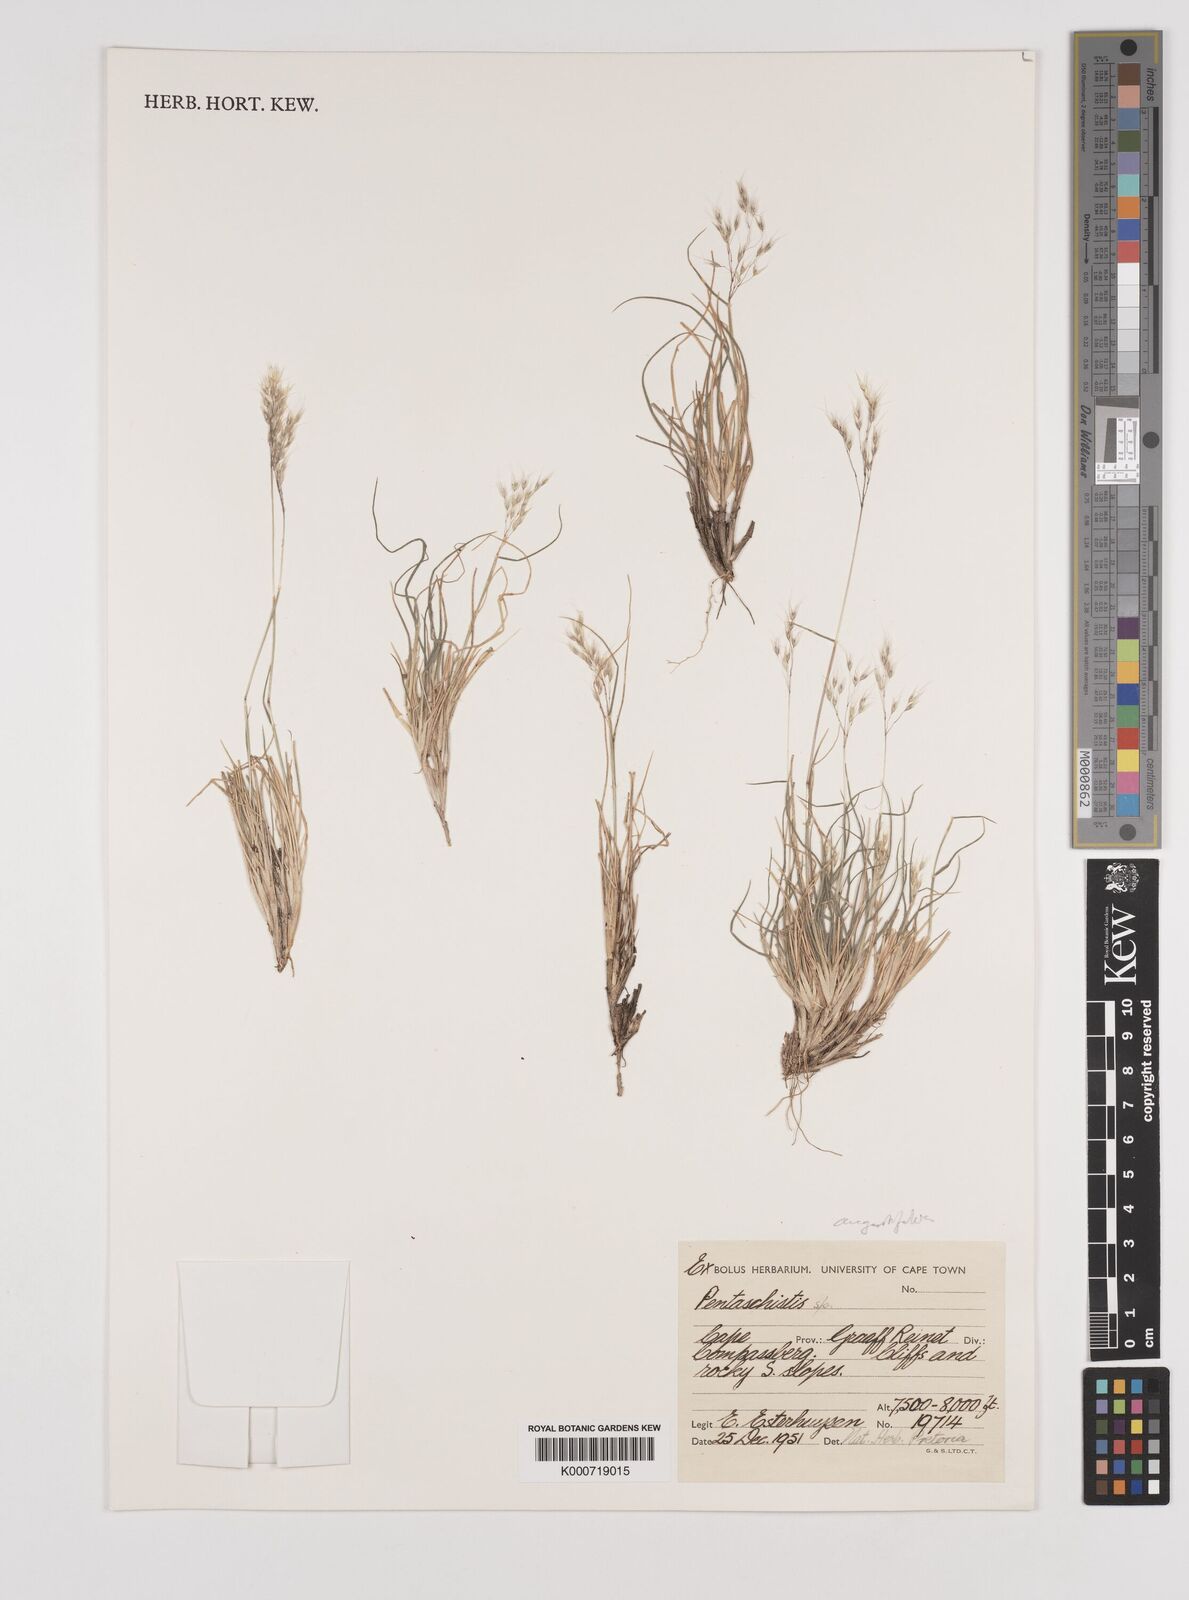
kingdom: Plantae
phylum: Tracheophyta
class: Liliopsida
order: Poales
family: Poaceae
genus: Pentameris
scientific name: Pentameris pallida
